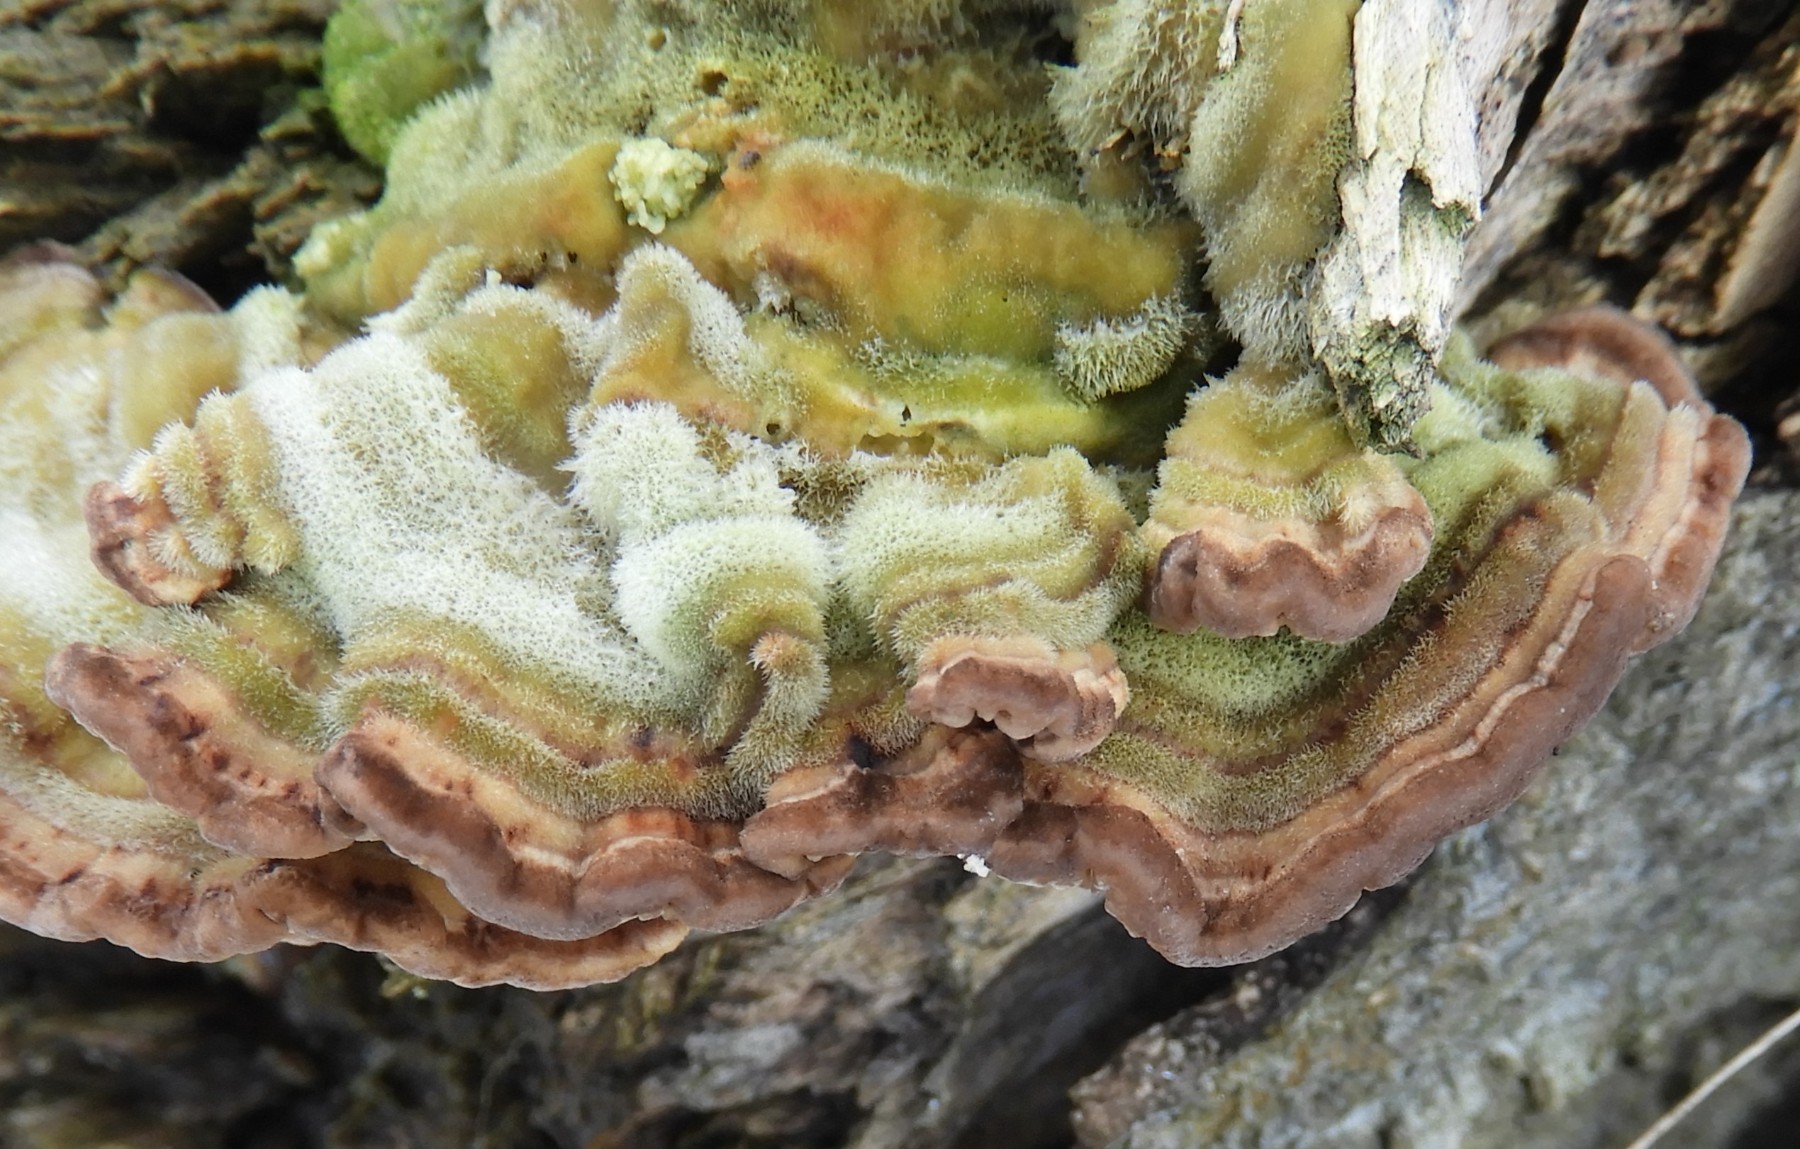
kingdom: Fungi
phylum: Basidiomycota
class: Agaricomycetes
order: Polyporales
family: Polyporaceae
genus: Lenzites
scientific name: Lenzites betulinus
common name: birke-læderporesvamp
